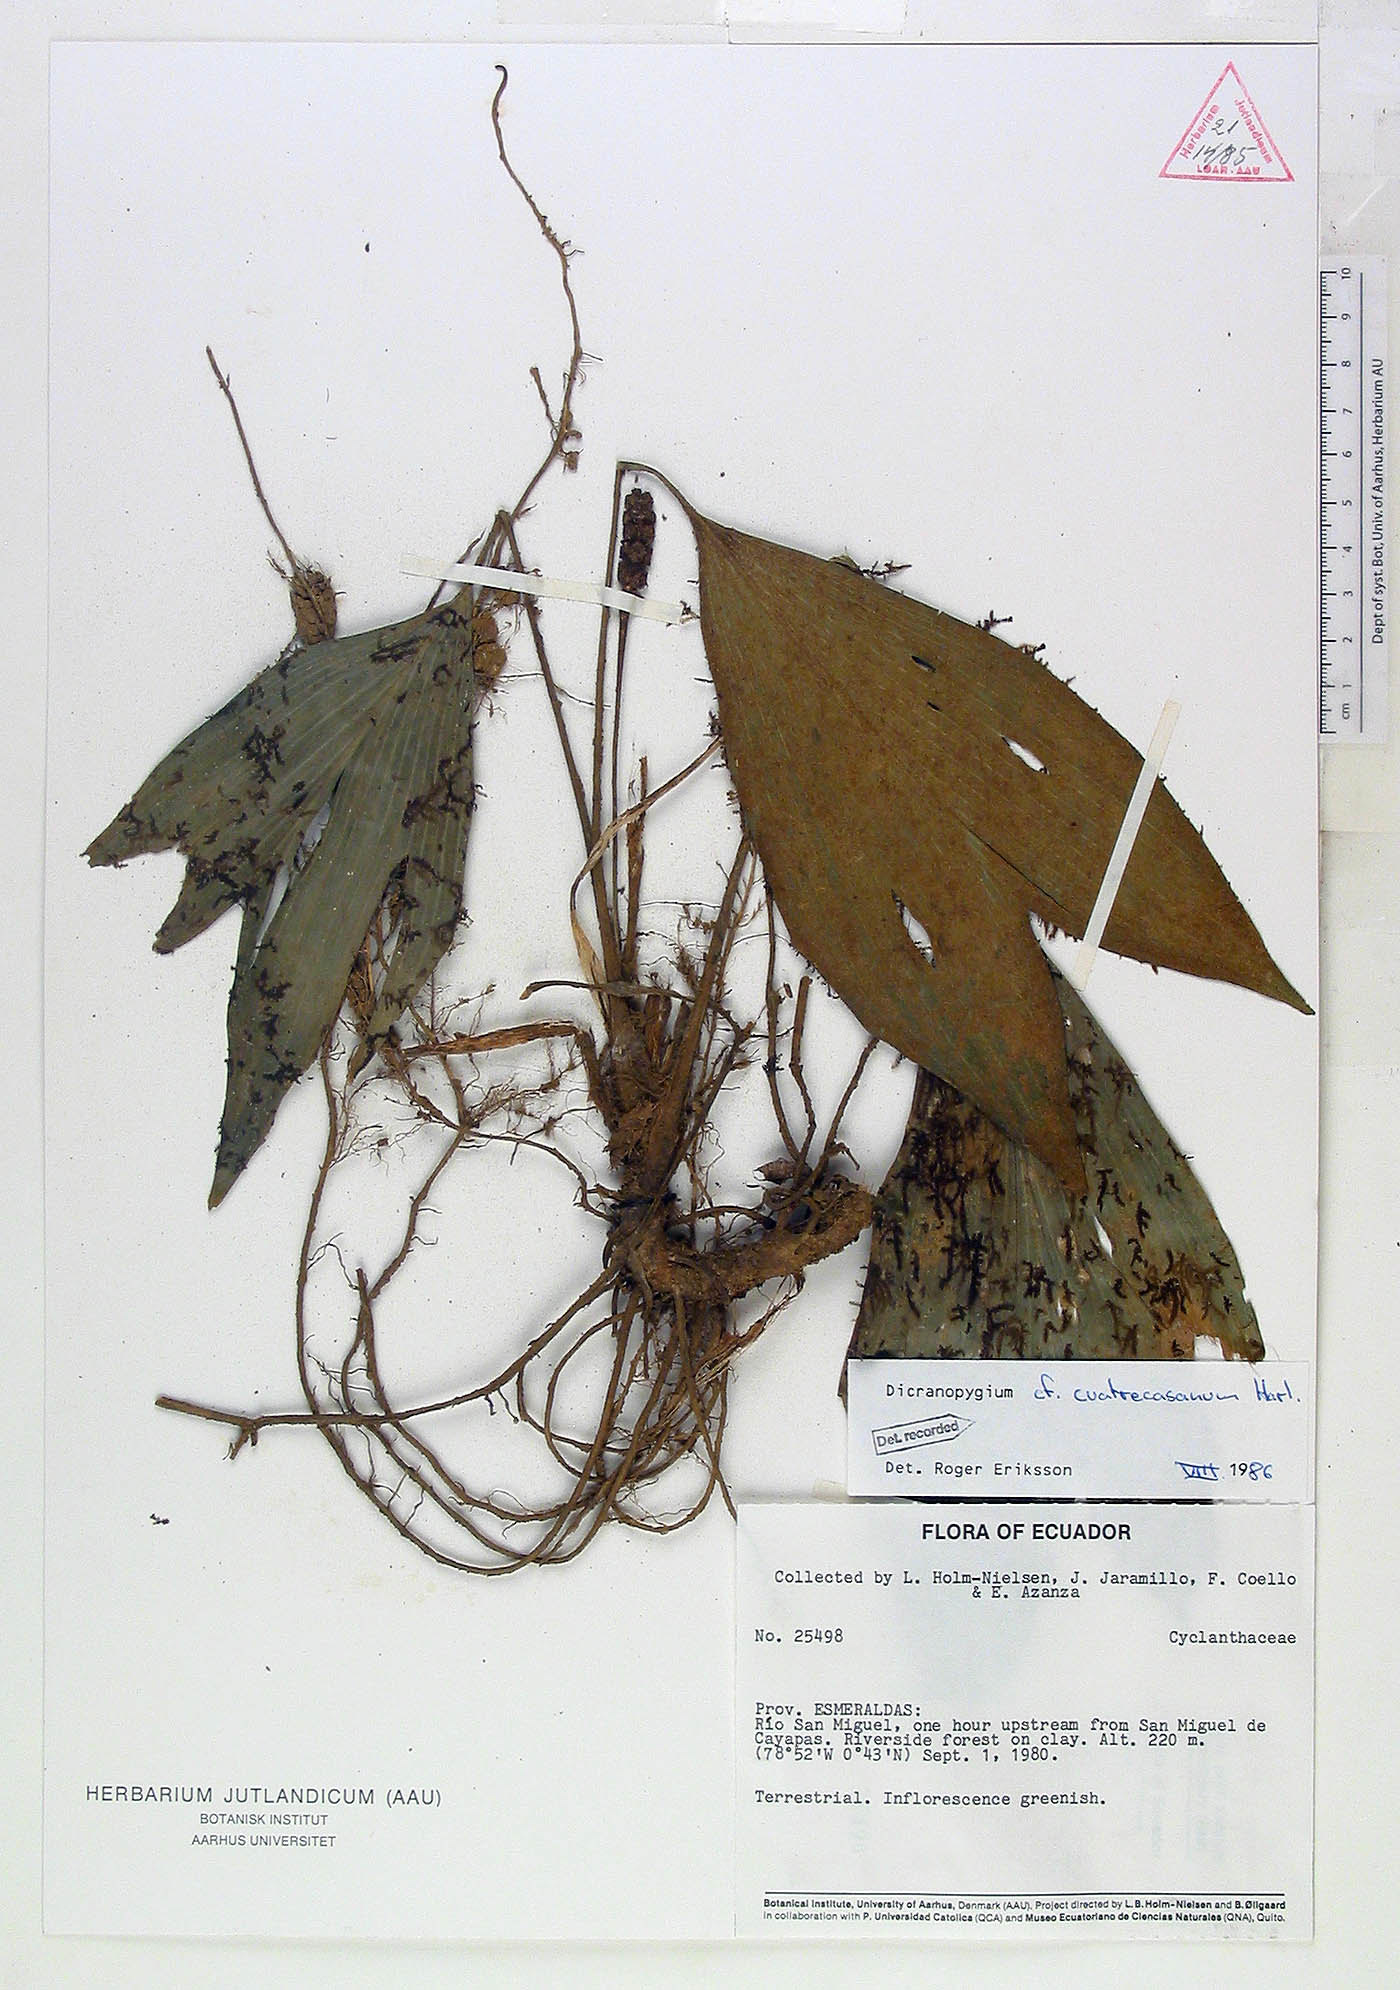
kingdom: Plantae
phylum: Tracheophyta
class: Liliopsida
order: Pandanales
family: Cyclanthaceae
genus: Dicranopygium
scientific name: Dicranopygium cuatrecasanum
